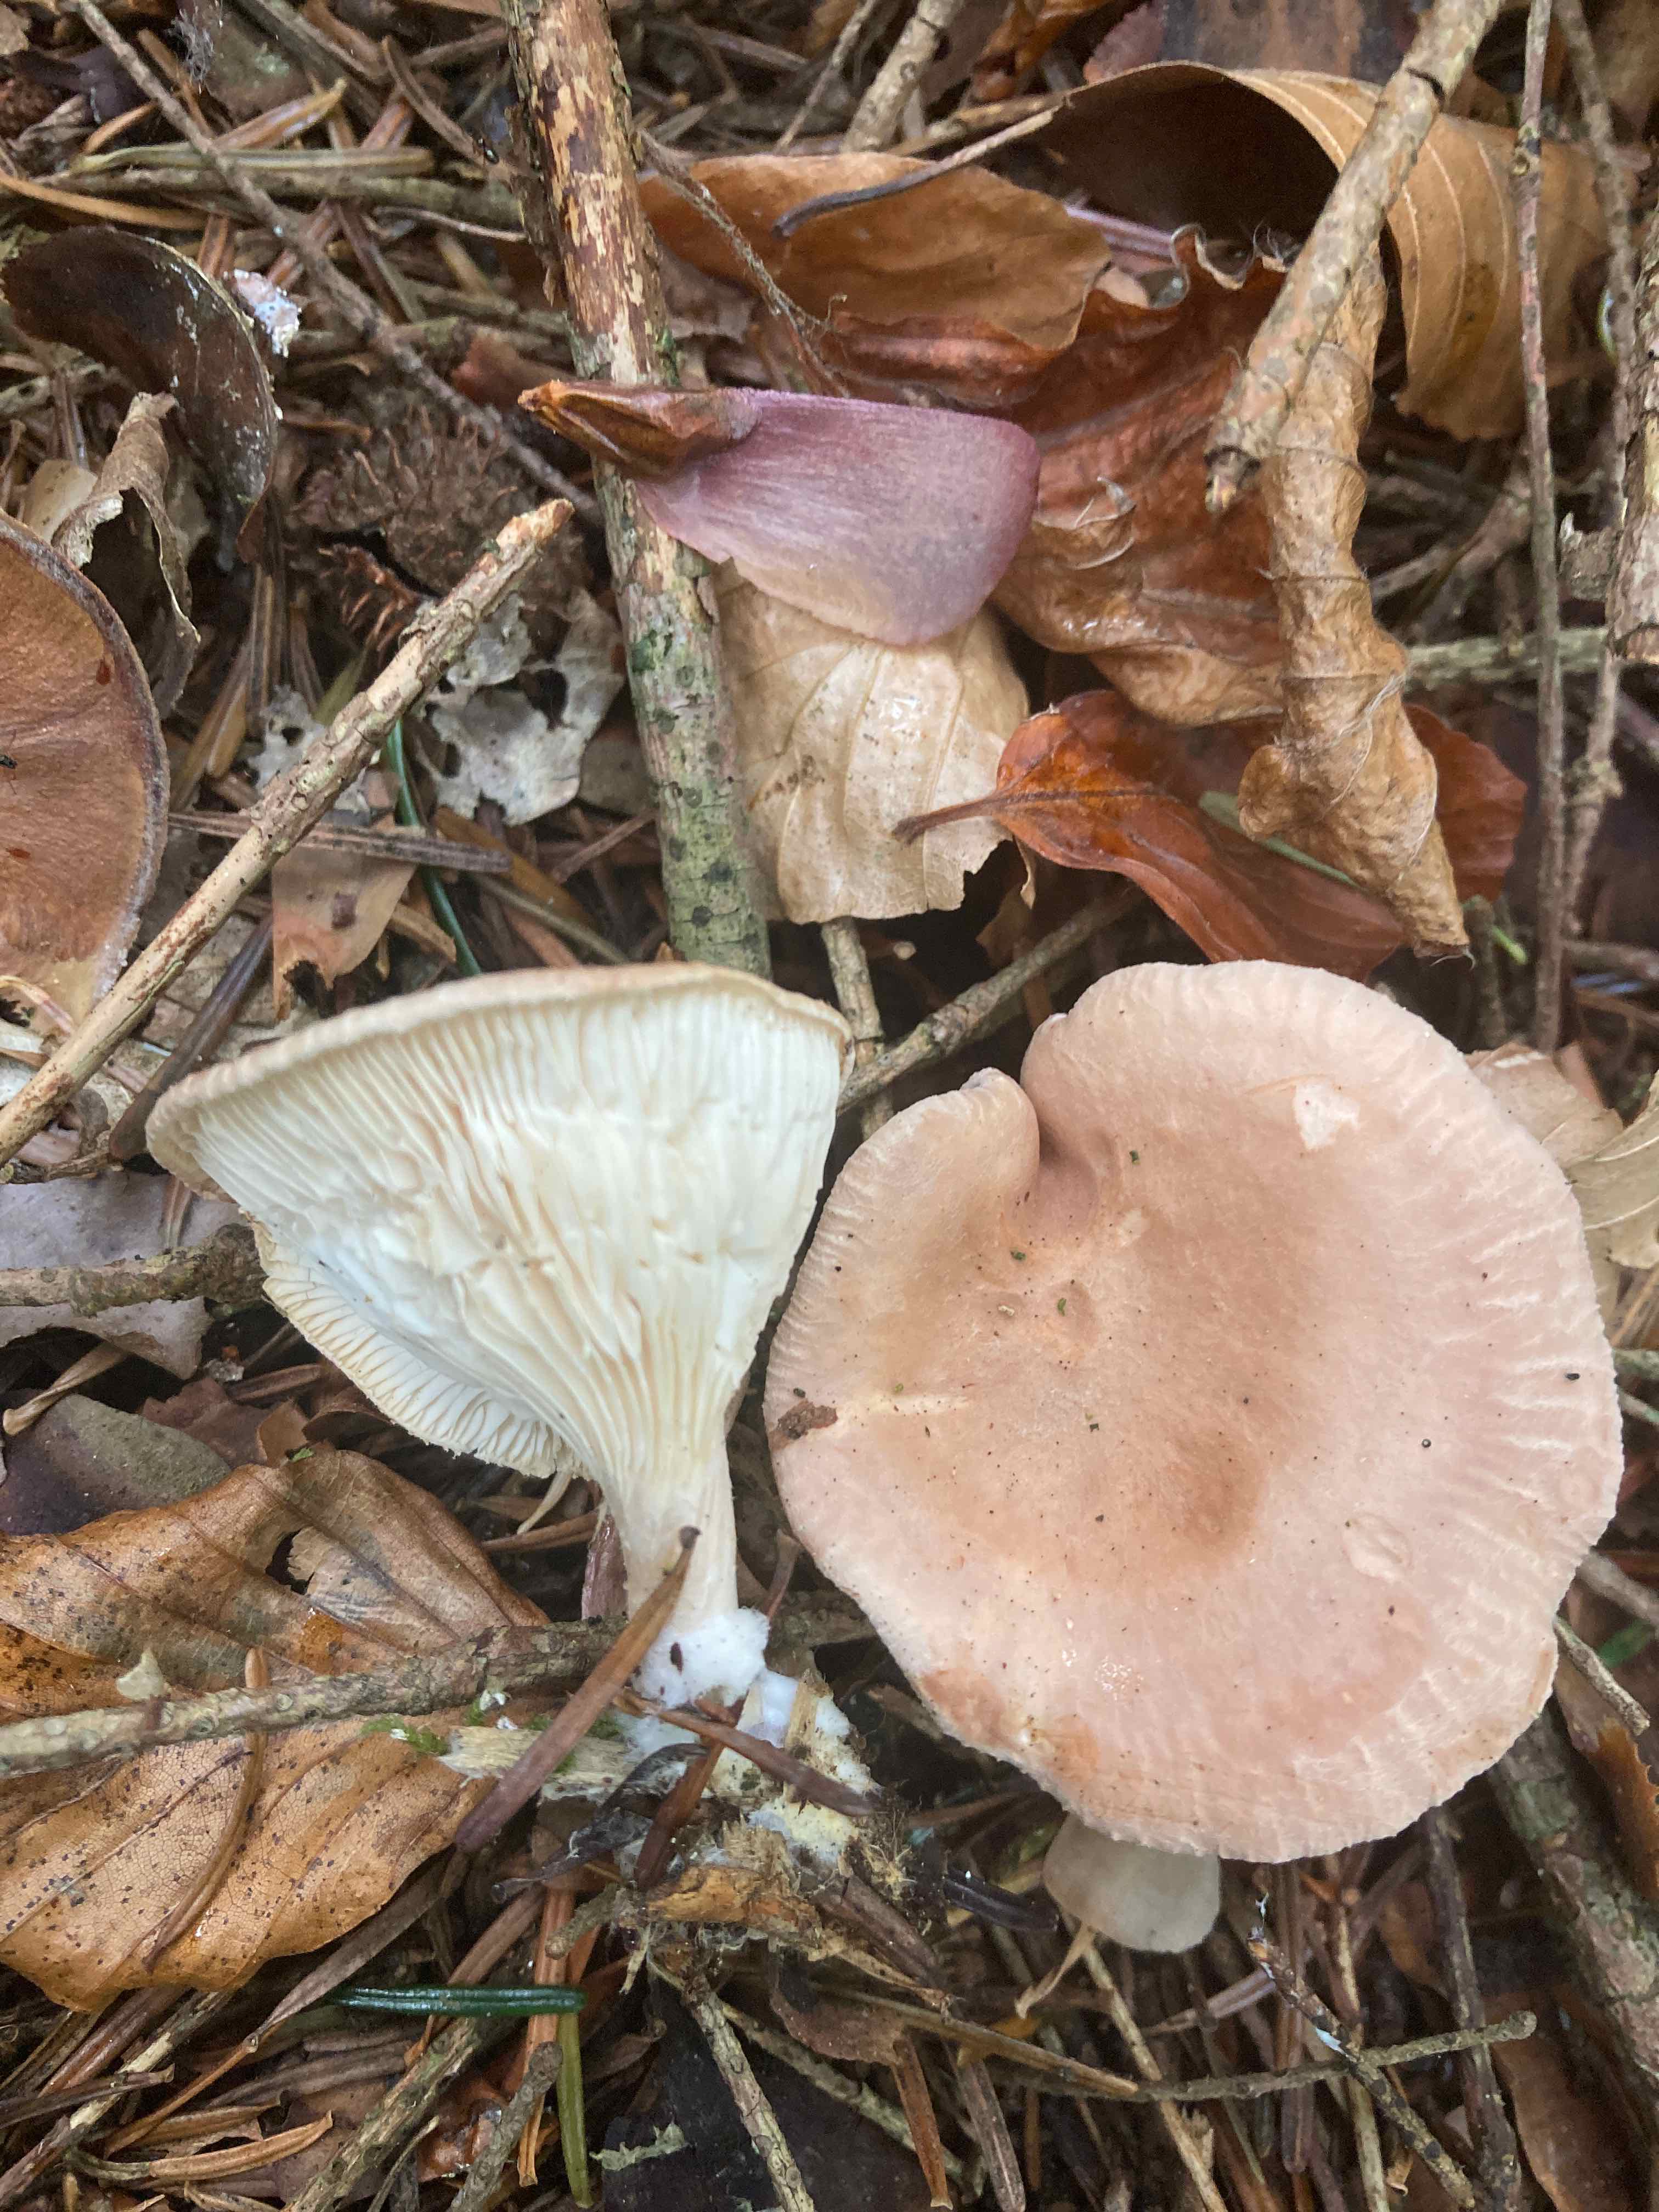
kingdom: Fungi
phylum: Basidiomycota
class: Agaricomycetes
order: Agaricales
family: Tricholomataceae
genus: Infundibulicybe
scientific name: Infundibulicybe gibba
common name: almindelig tragthat
